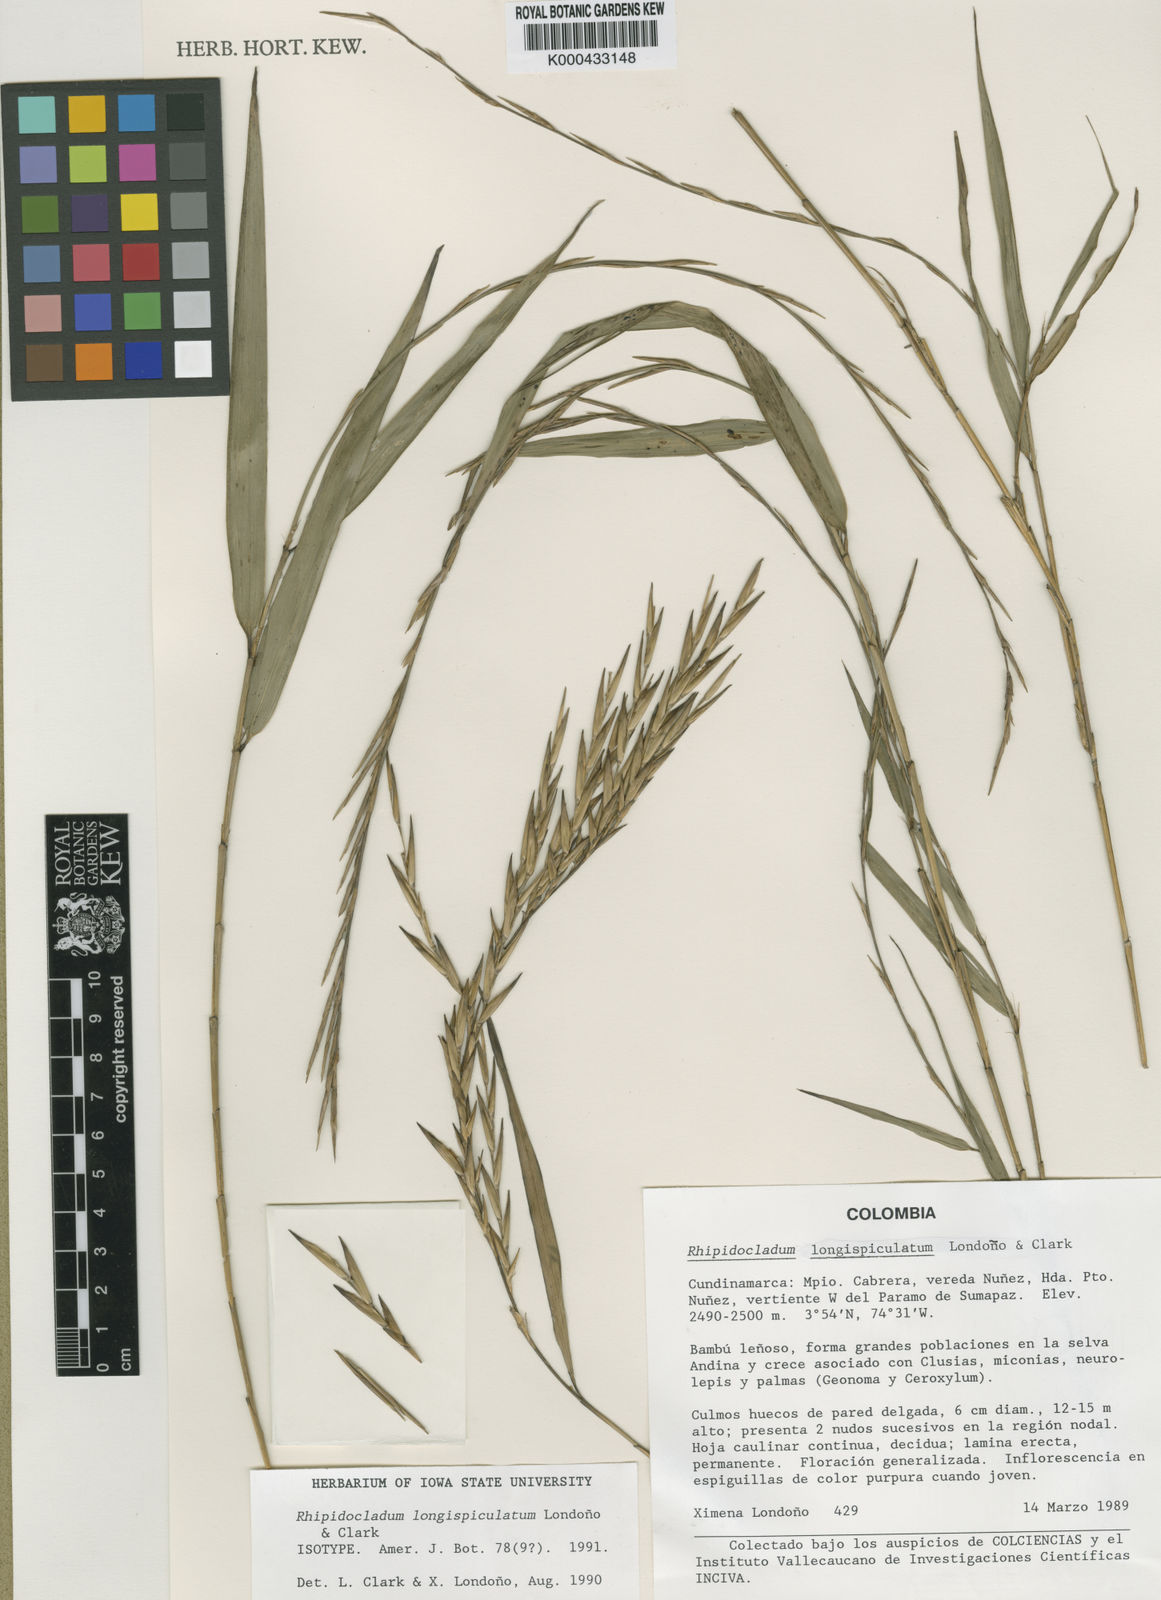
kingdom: Plantae
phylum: Tracheophyta
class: Liliopsida
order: Poales
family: Poaceae
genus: Didymogonyx
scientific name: Didymogonyx longispiculatum
